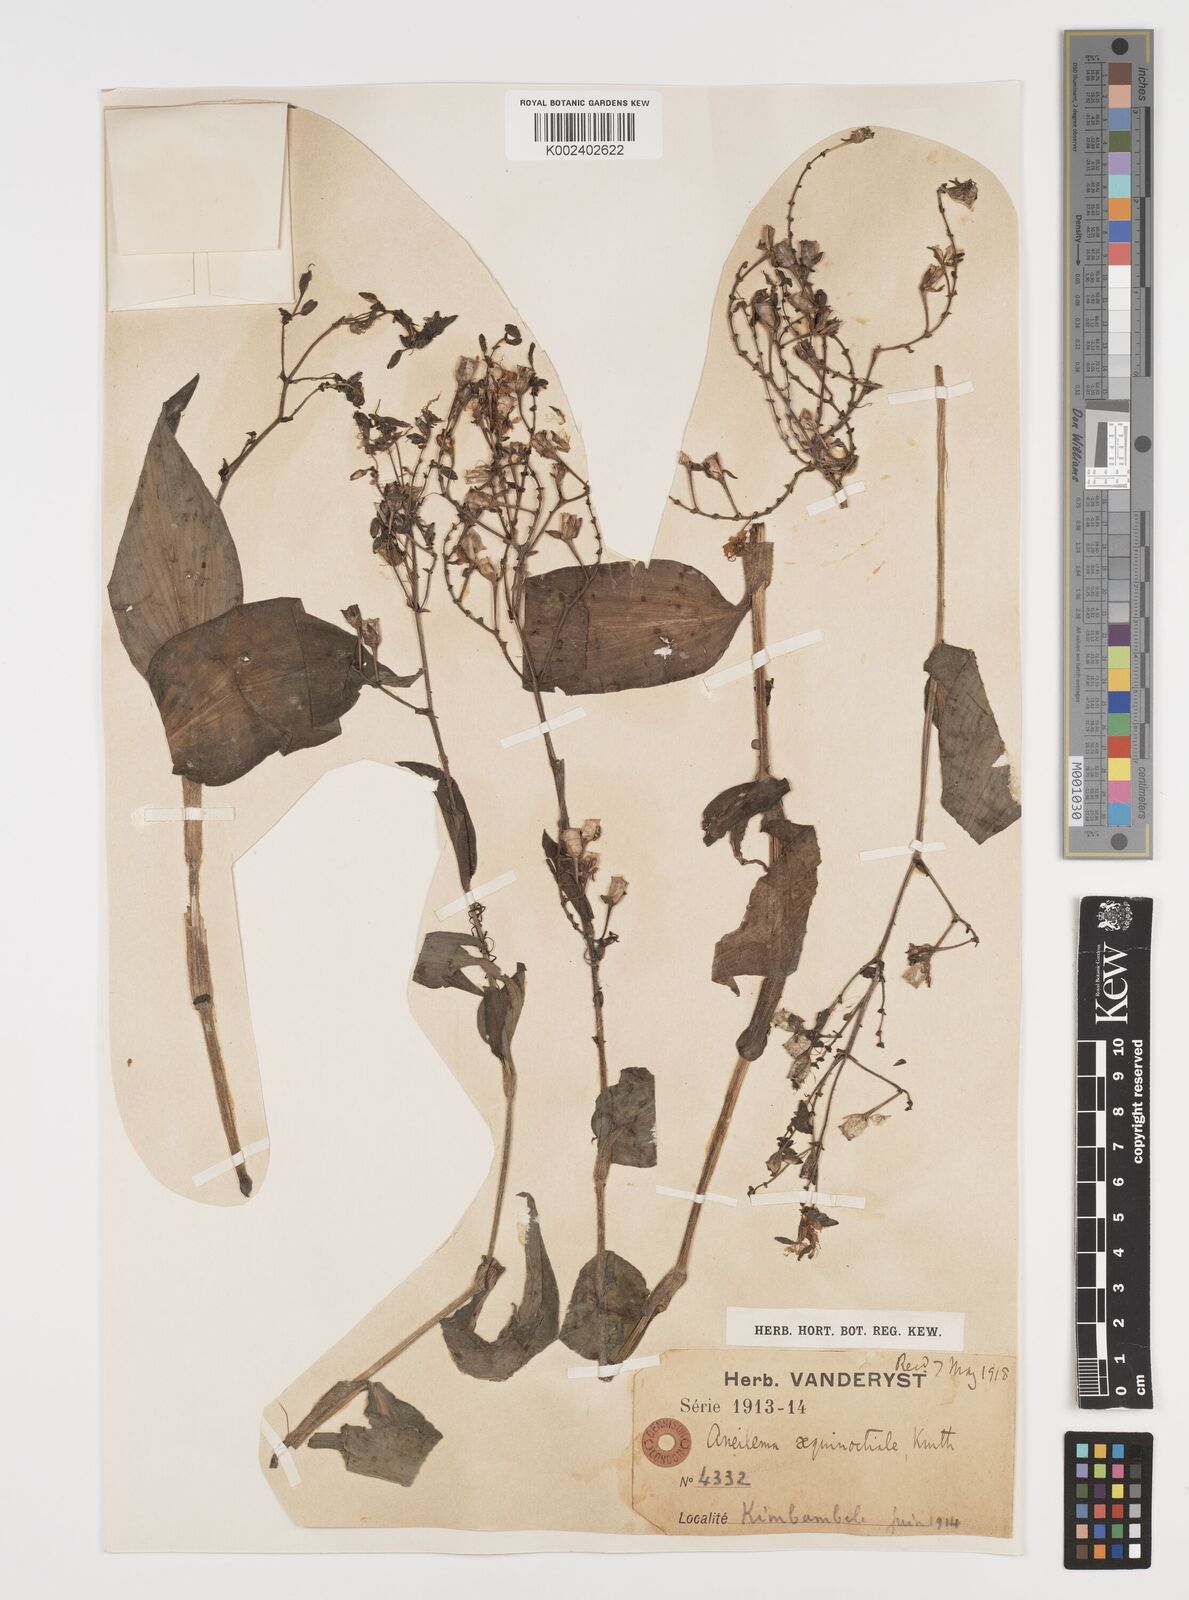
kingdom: Plantae
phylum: Tracheophyta
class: Liliopsida
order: Commelinales
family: Commelinaceae
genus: Aneilema
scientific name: Aneilema aequinoctiale
